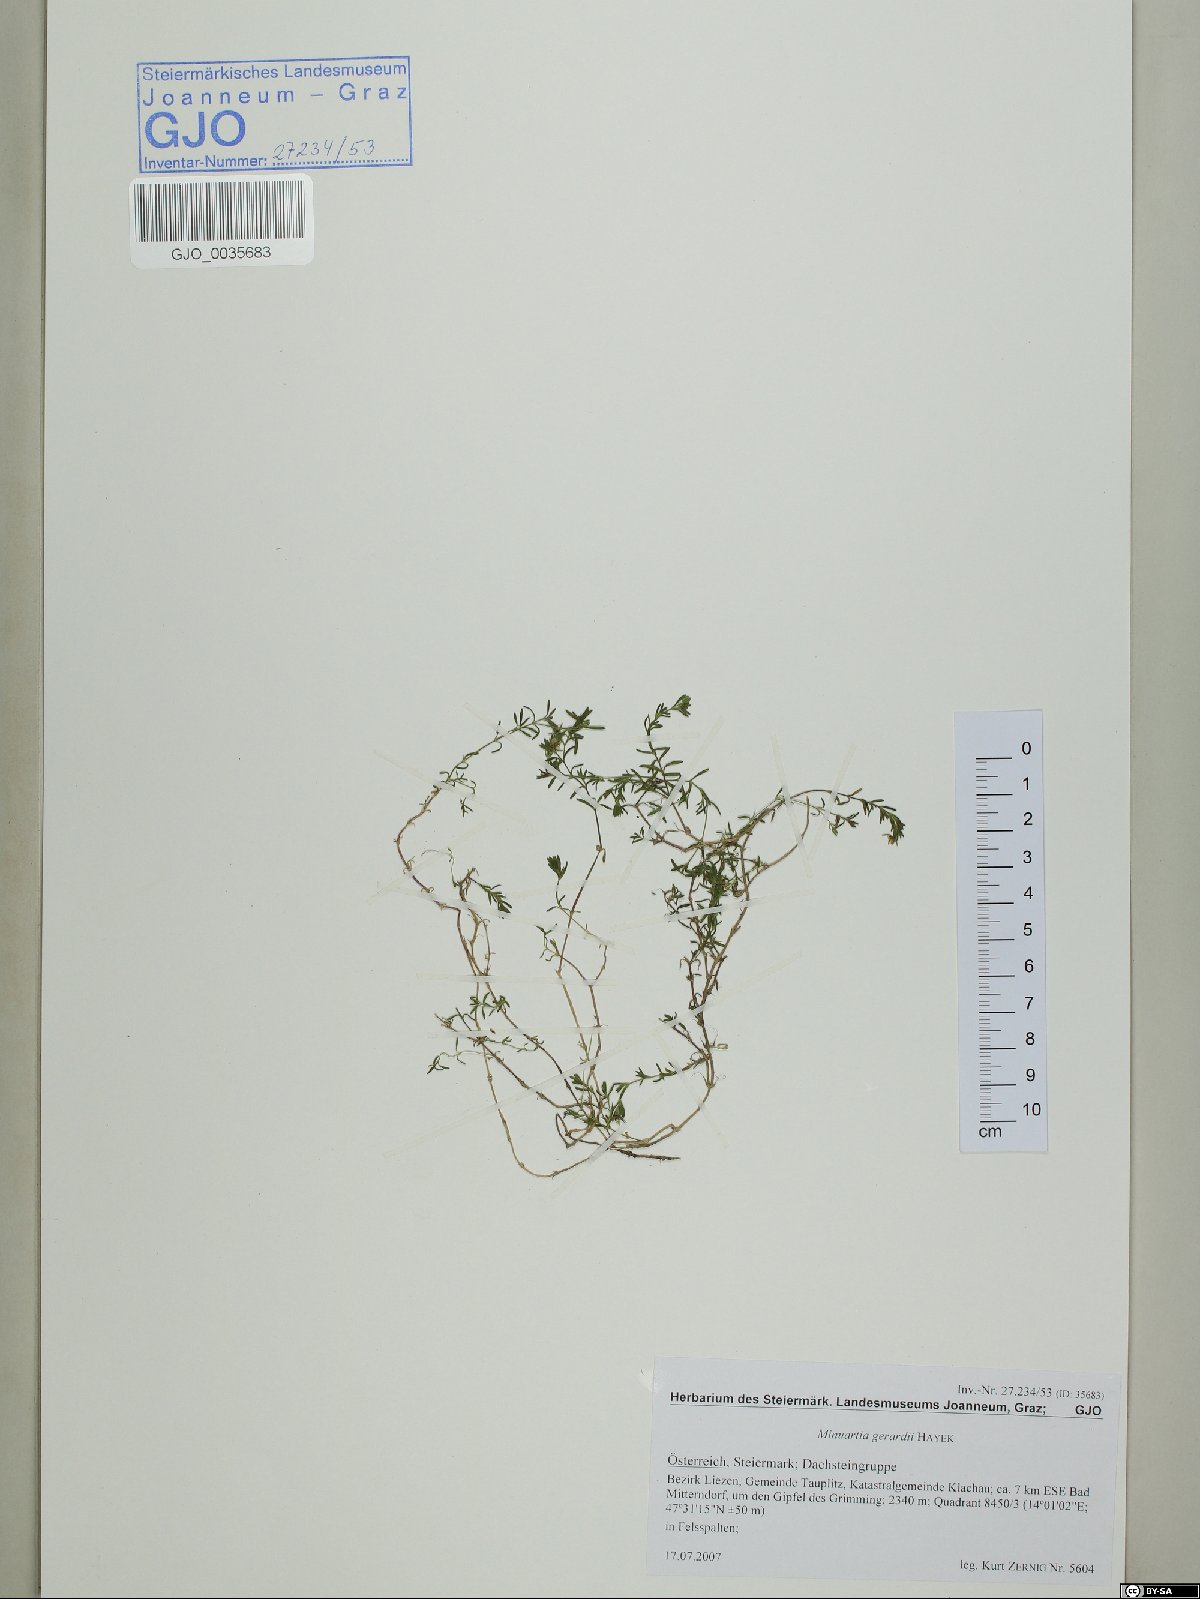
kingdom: Plantae
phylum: Tracheophyta
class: Magnoliopsida
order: Caryophyllales
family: Caryophyllaceae
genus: Sabulina
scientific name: Sabulina verna
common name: Spring sandwort
